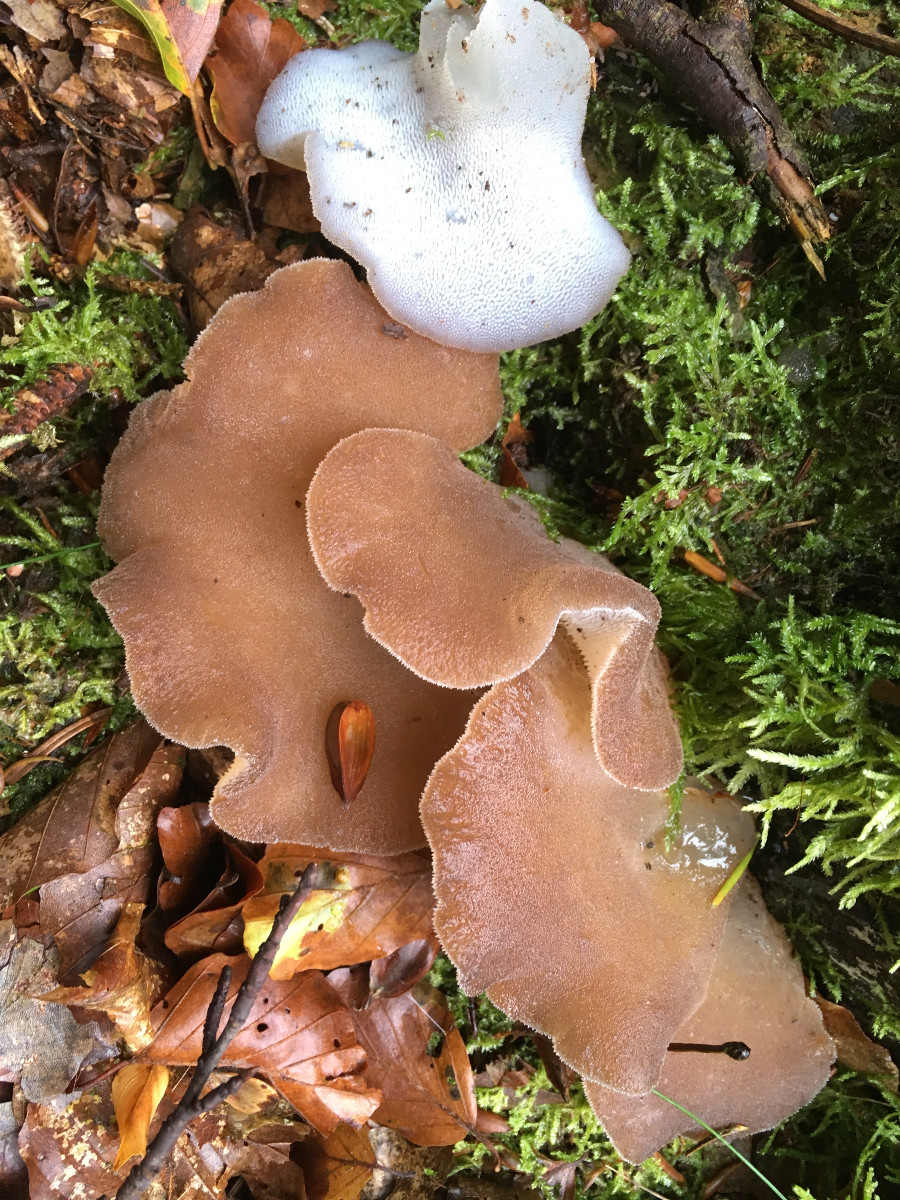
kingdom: Fungi
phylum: Basidiomycota
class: Agaricomycetes
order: Auriculariales
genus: Pseudohydnum
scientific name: Pseudohydnum gelatinosum
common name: bævretand
